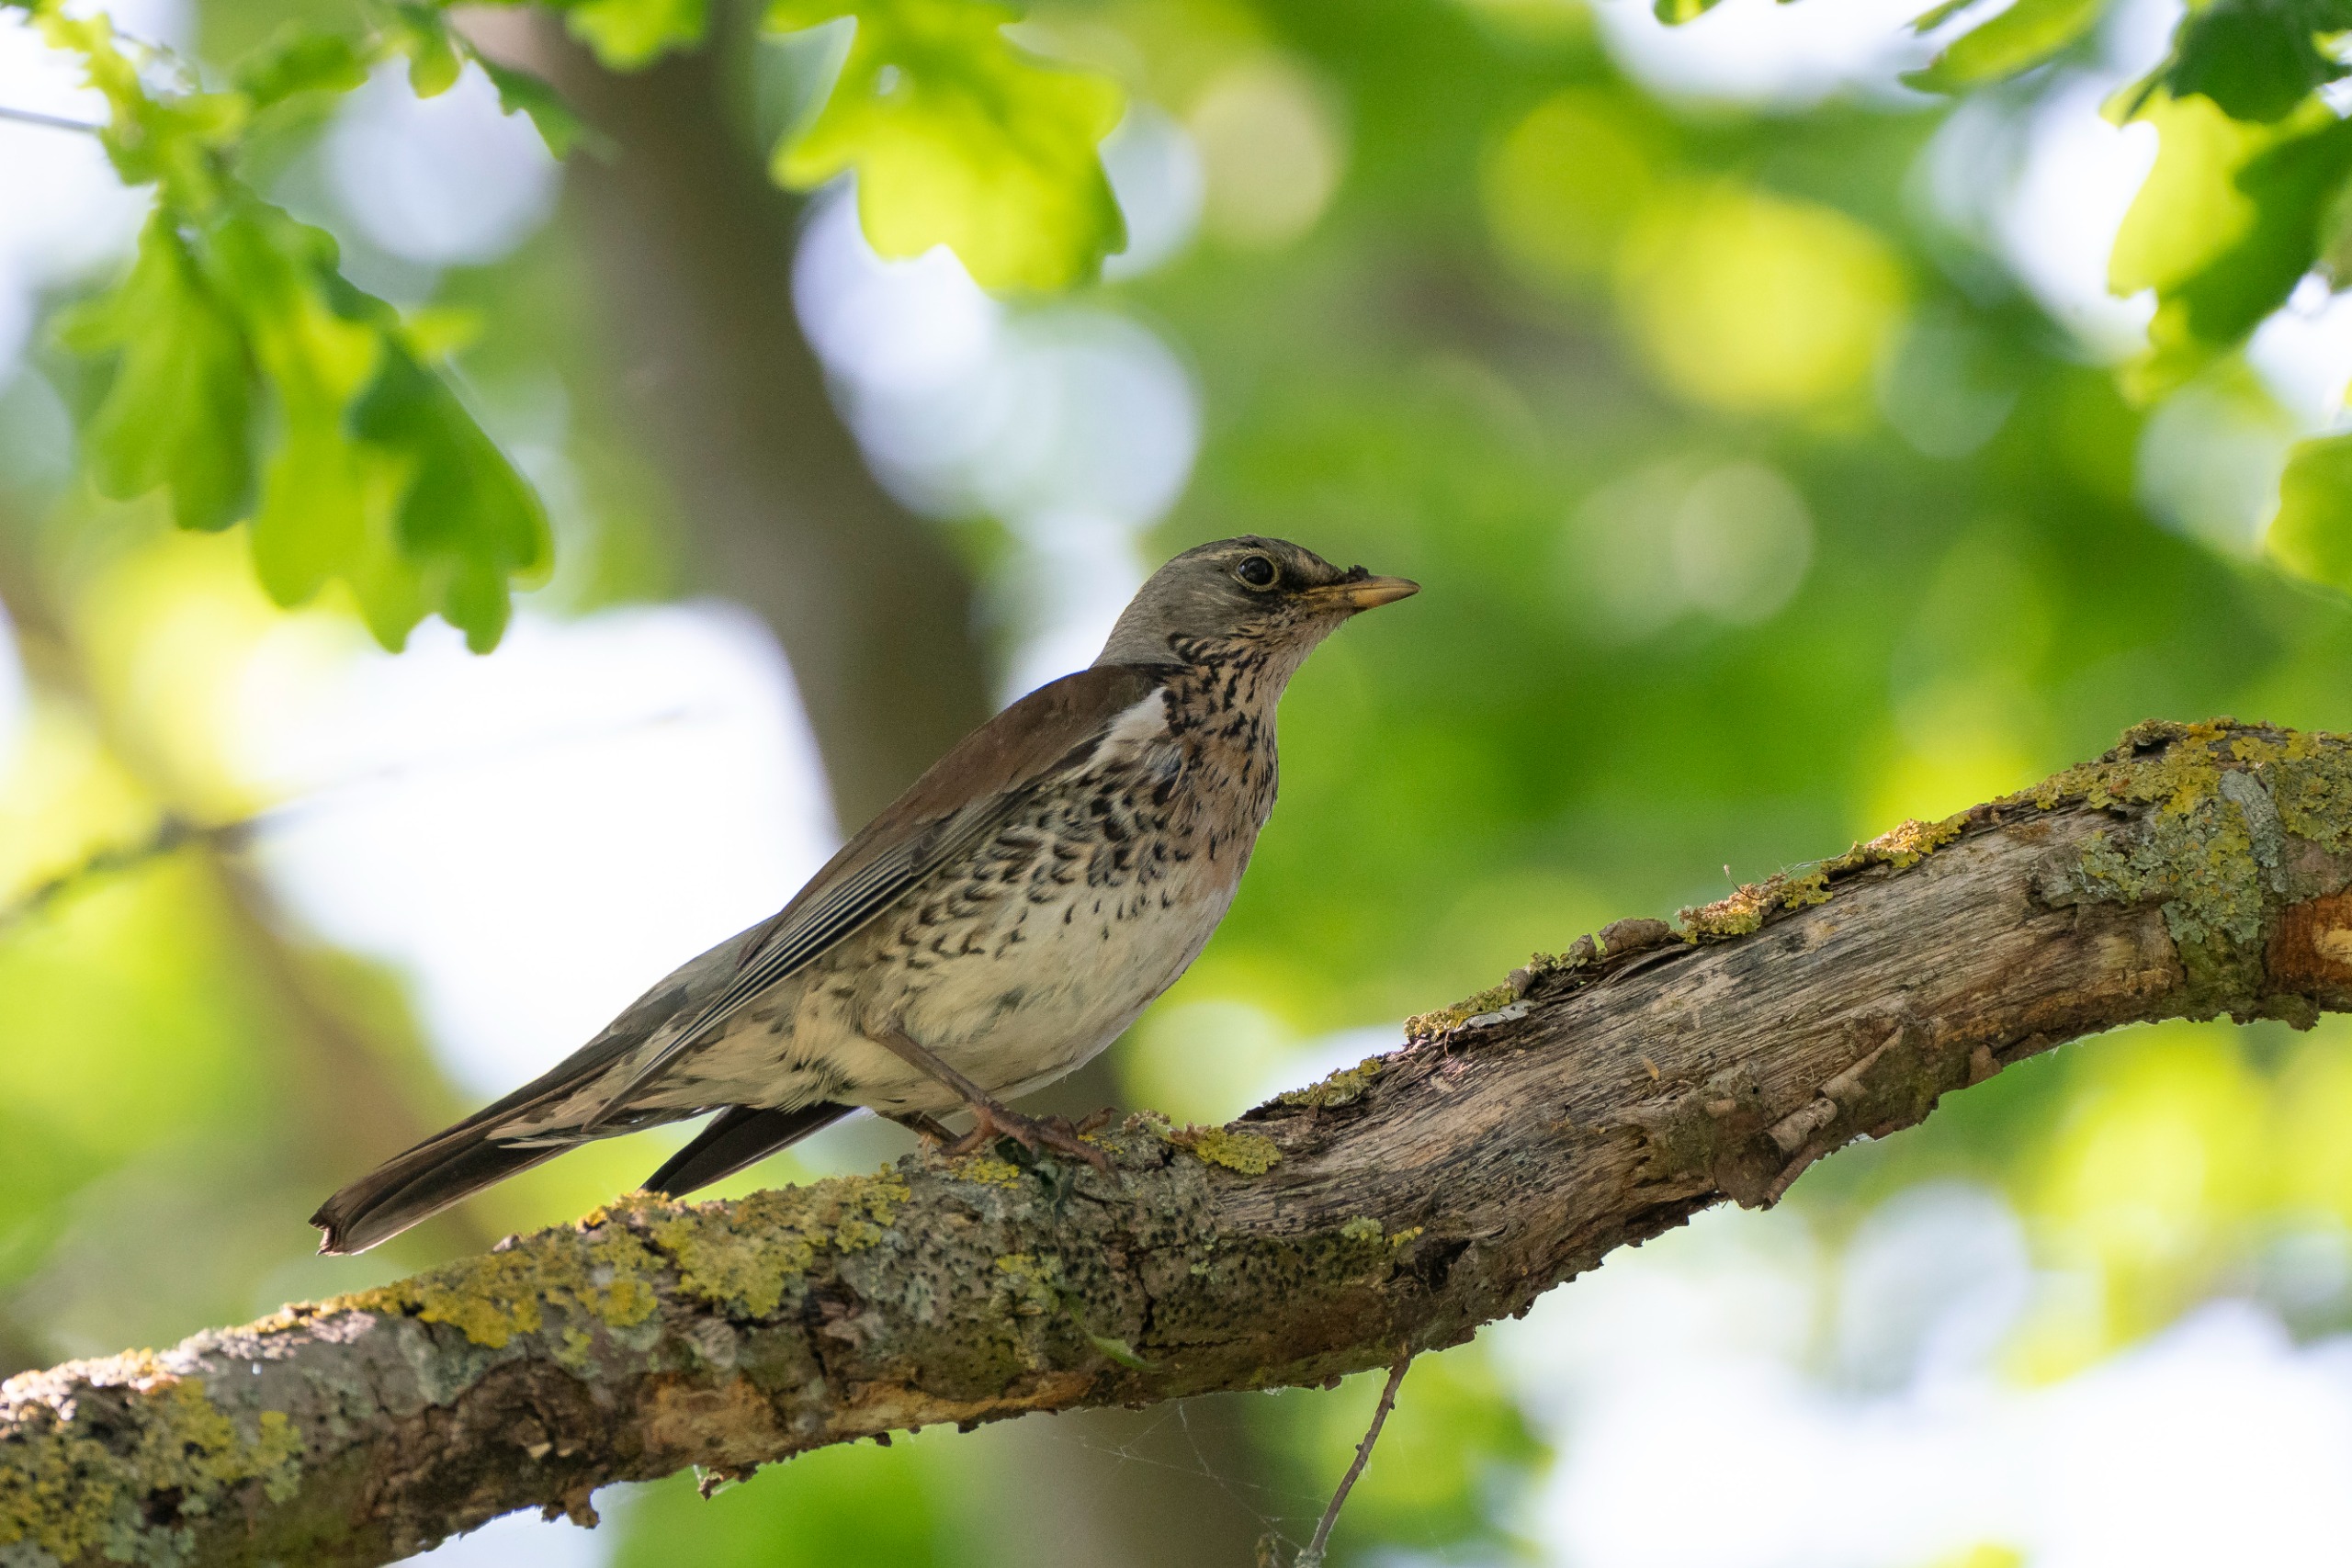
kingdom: Animalia
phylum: Chordata
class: Aves
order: Passeriformes
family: Turdidae
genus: Turdus
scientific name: Turdus pilaris
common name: Sjagger
